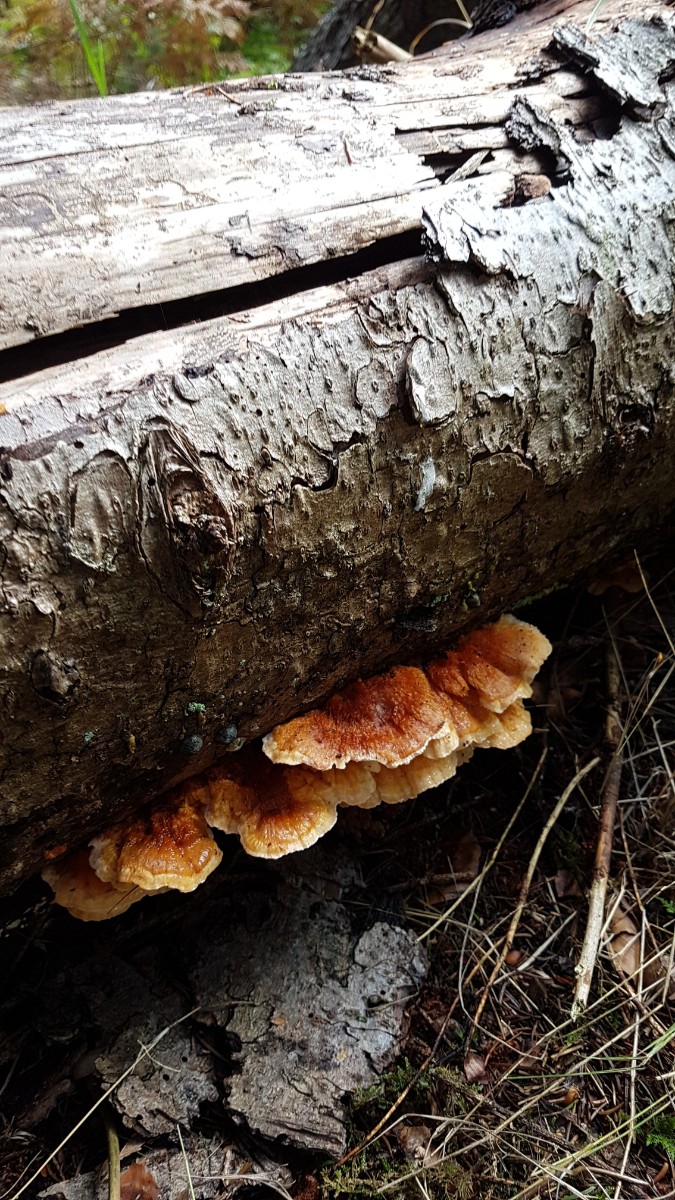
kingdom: Fungi
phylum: Basidiomycota
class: Agaricomycetes
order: Polyporales
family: Pycnoporellaceae
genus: Pycnoporellus
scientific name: Pycnoporellus fulgens
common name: flammeporesvamp
